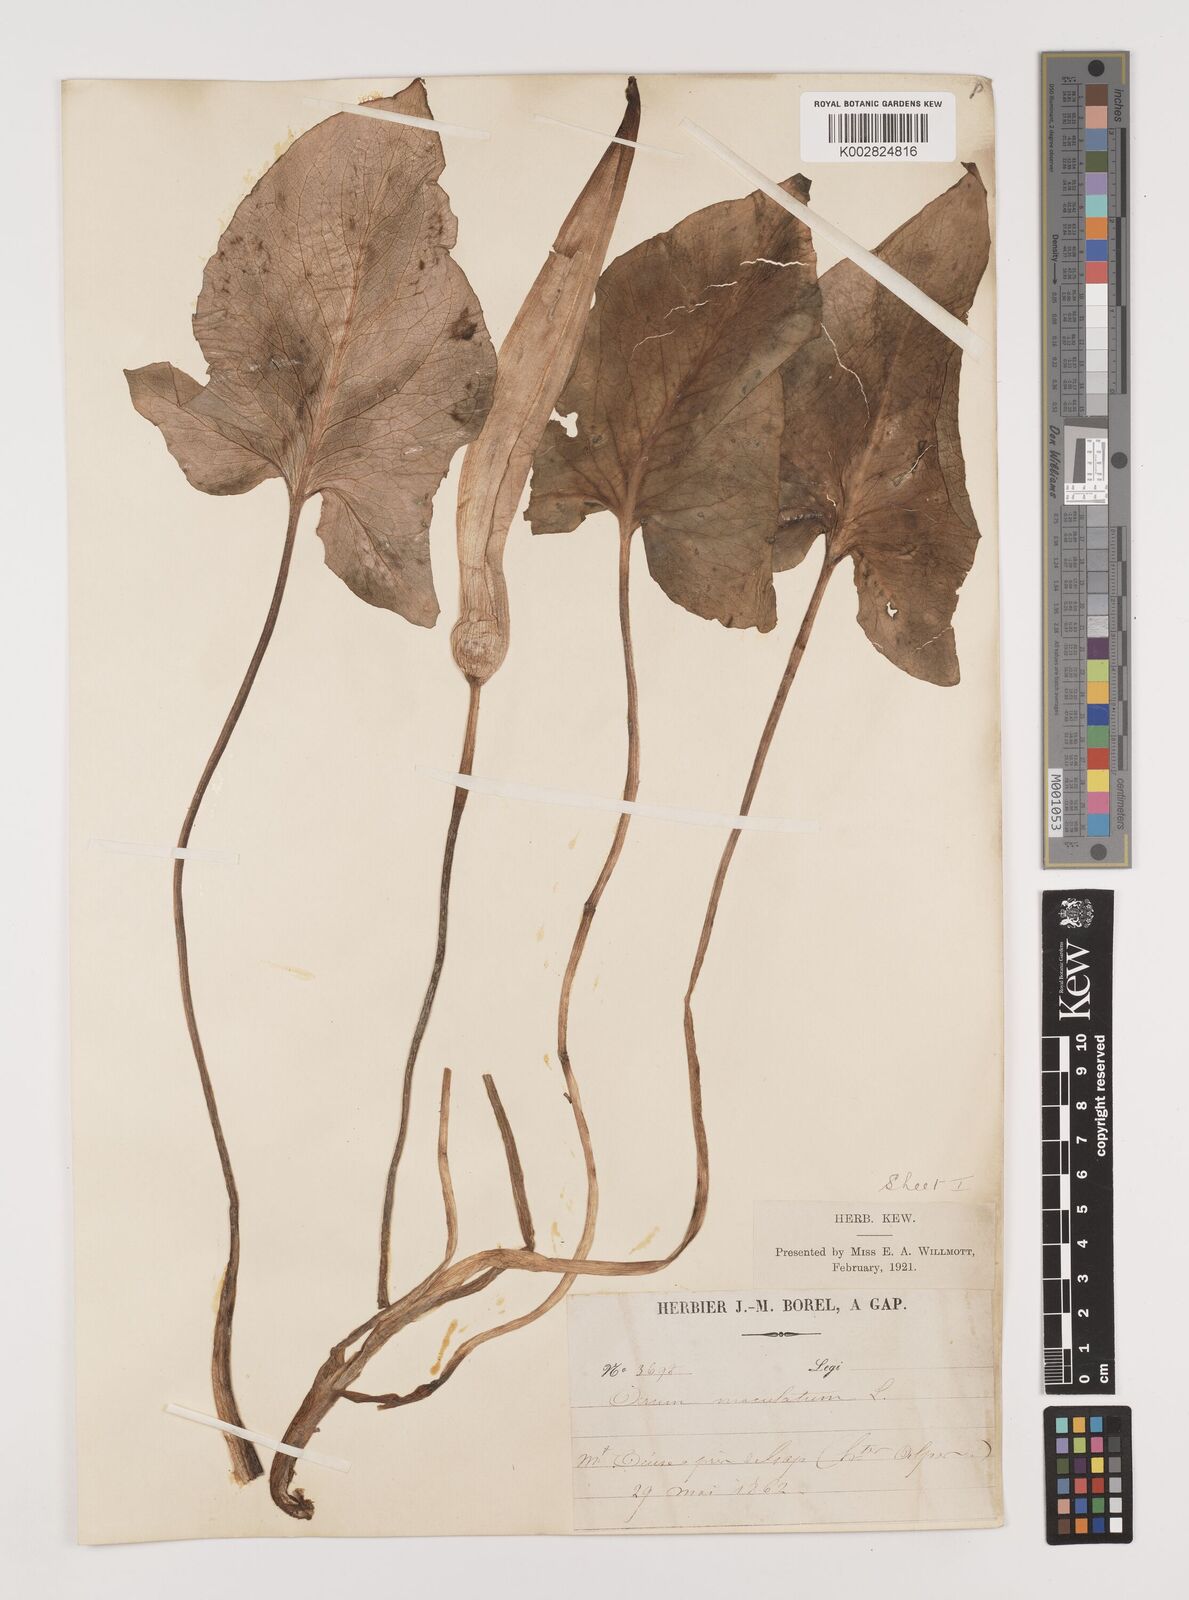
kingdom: Plantae
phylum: Tracheophyta
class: Liliopsida
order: Alismatales
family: Araceae
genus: Arum
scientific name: Arum maculatum
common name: Lords-and-ladies
